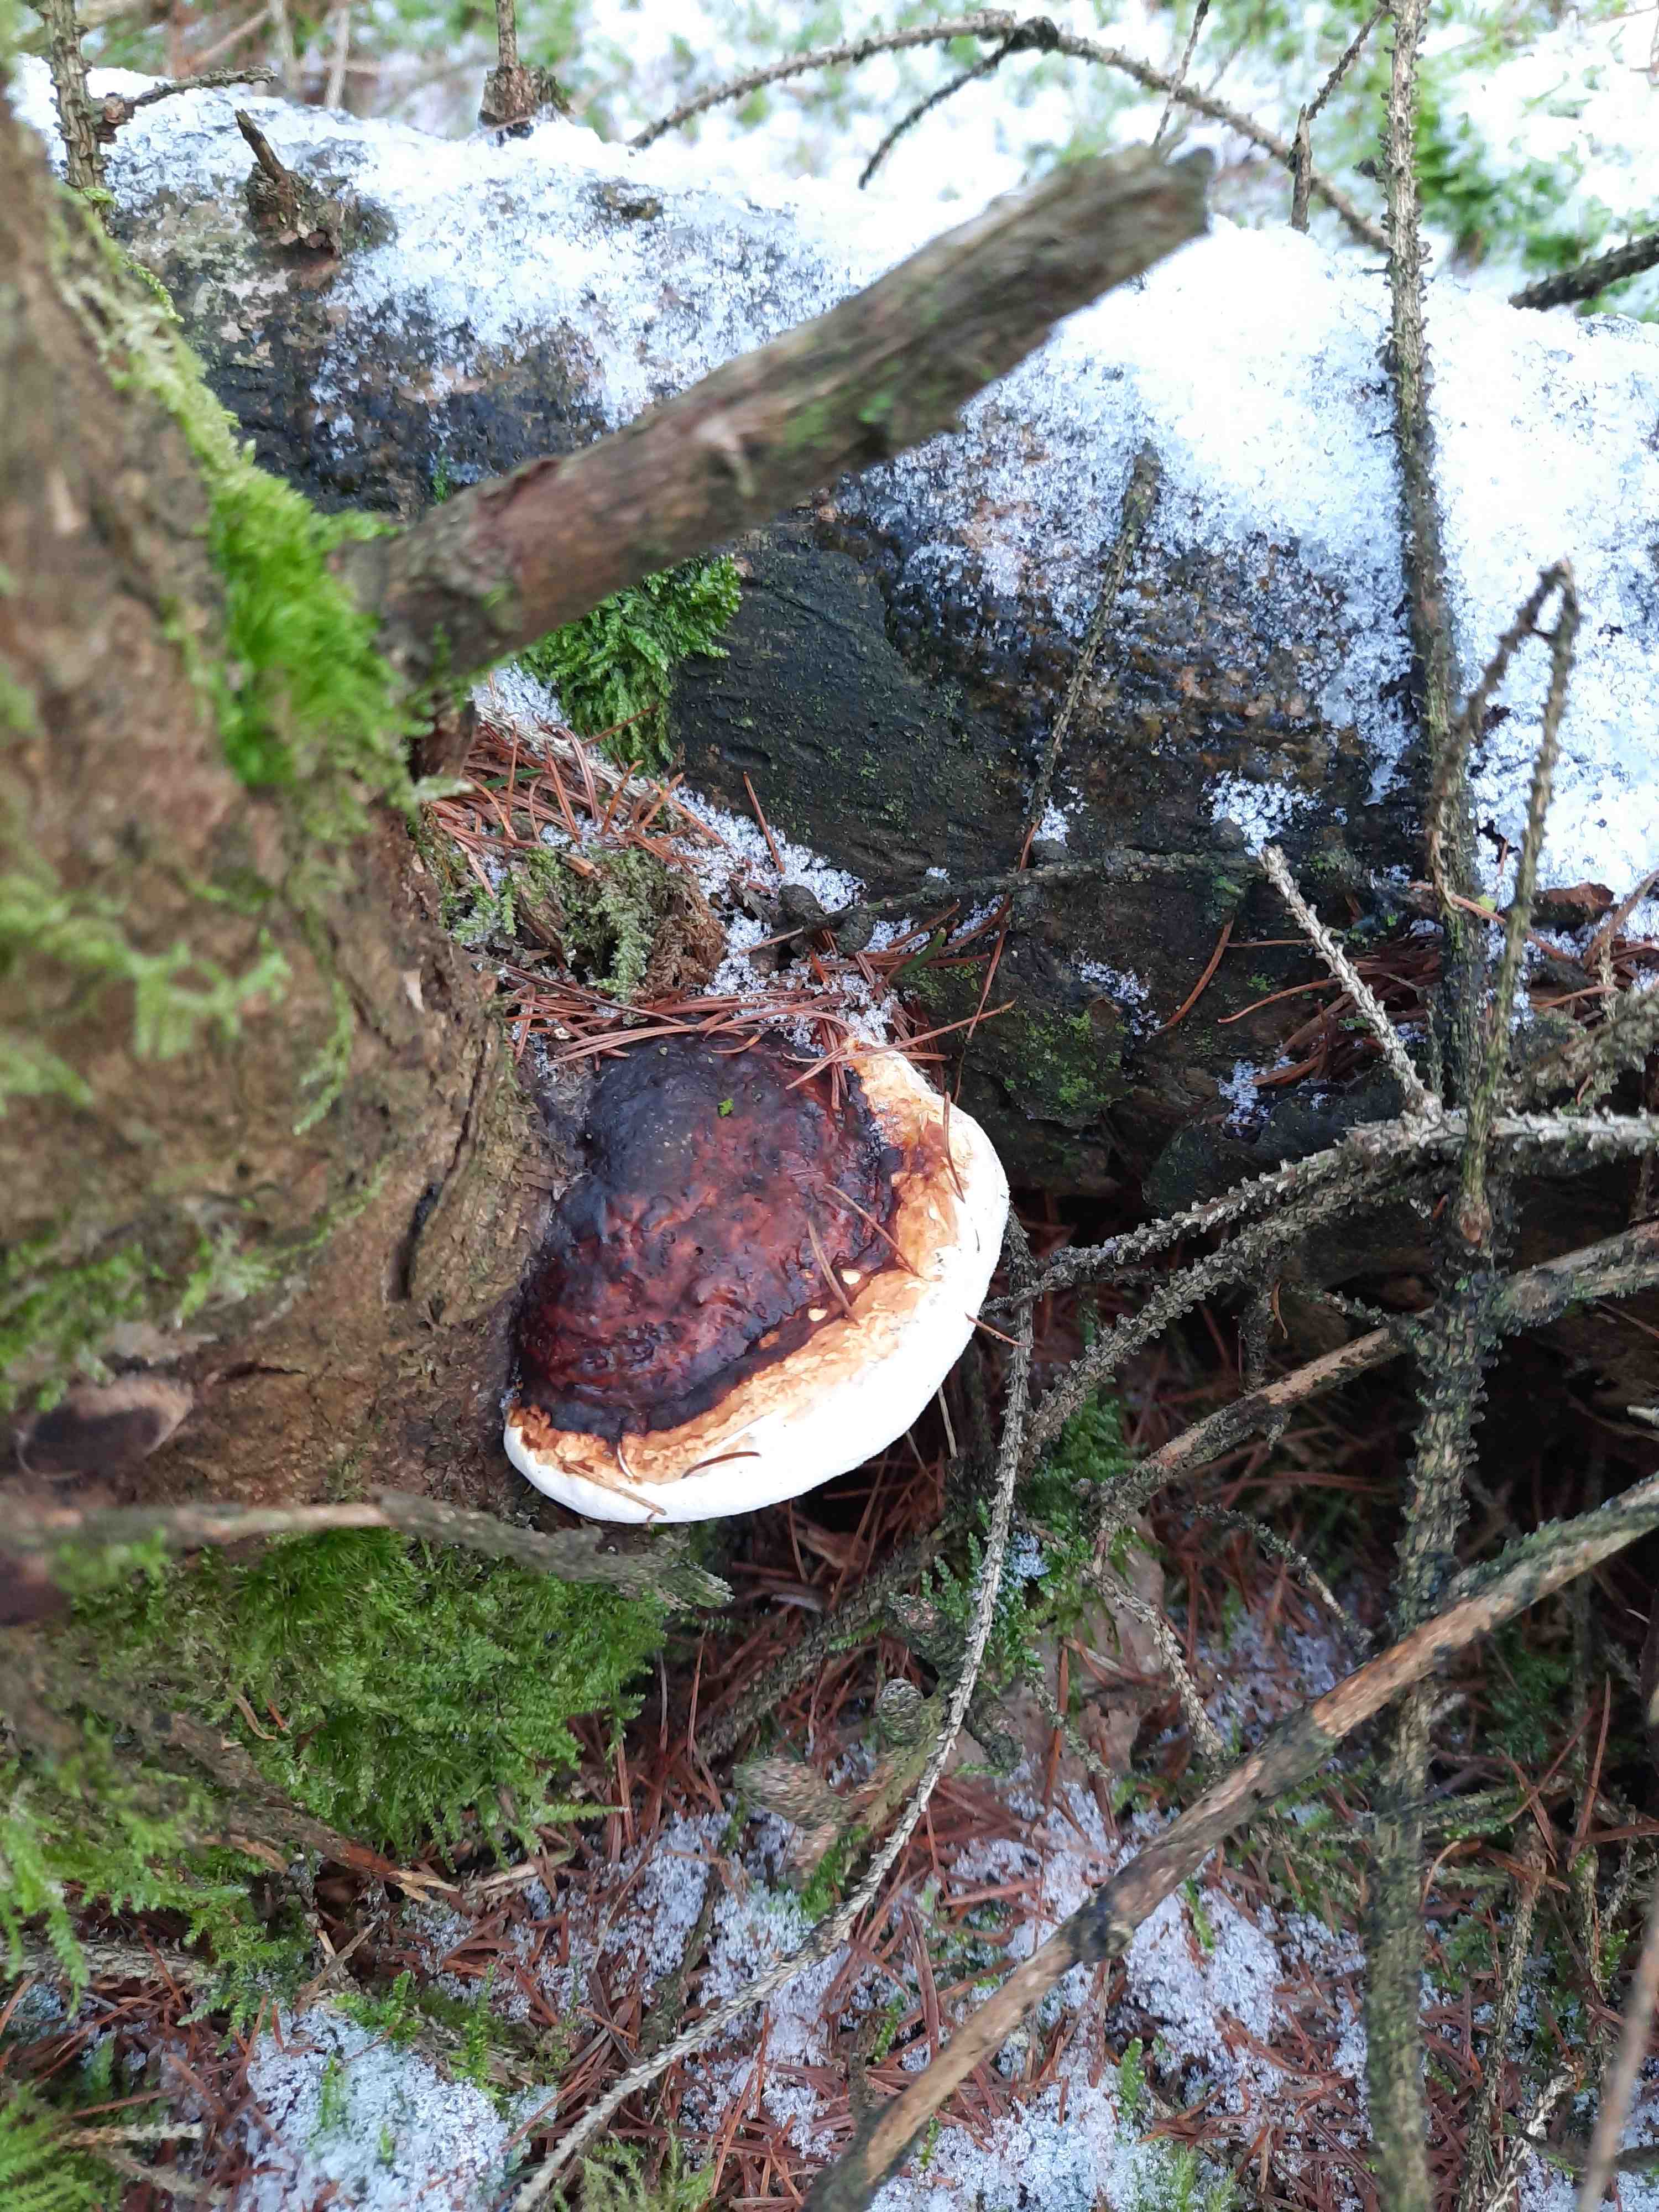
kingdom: Fungi
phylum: Basidiomycota
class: Agaricomycetes
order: Polyporales
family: Fomitopsidaceae
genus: Fomitopsis
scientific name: Fomitopsis pinicola
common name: randbæltet hovporesvamp
